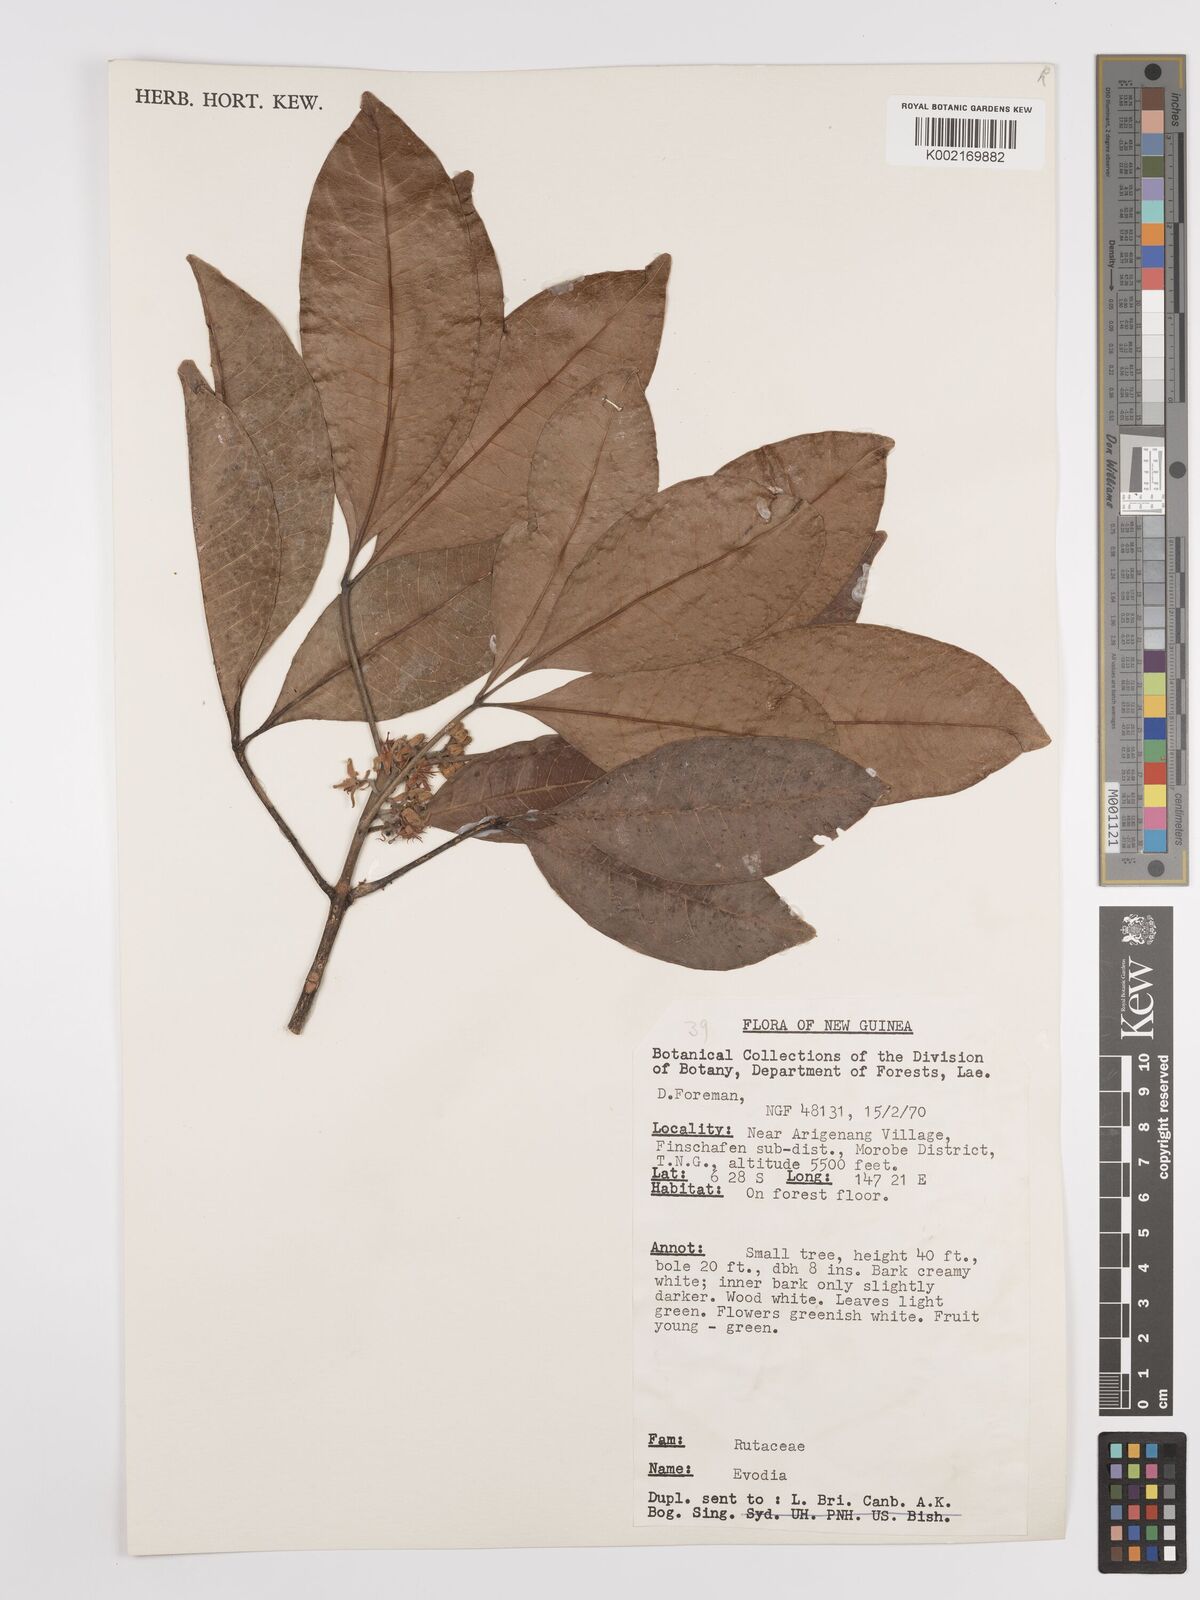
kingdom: Plantae
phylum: Tracheophyta
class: Magnoliopsida
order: Sapindales
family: Rutaceae
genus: Euodia
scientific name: Euodia
